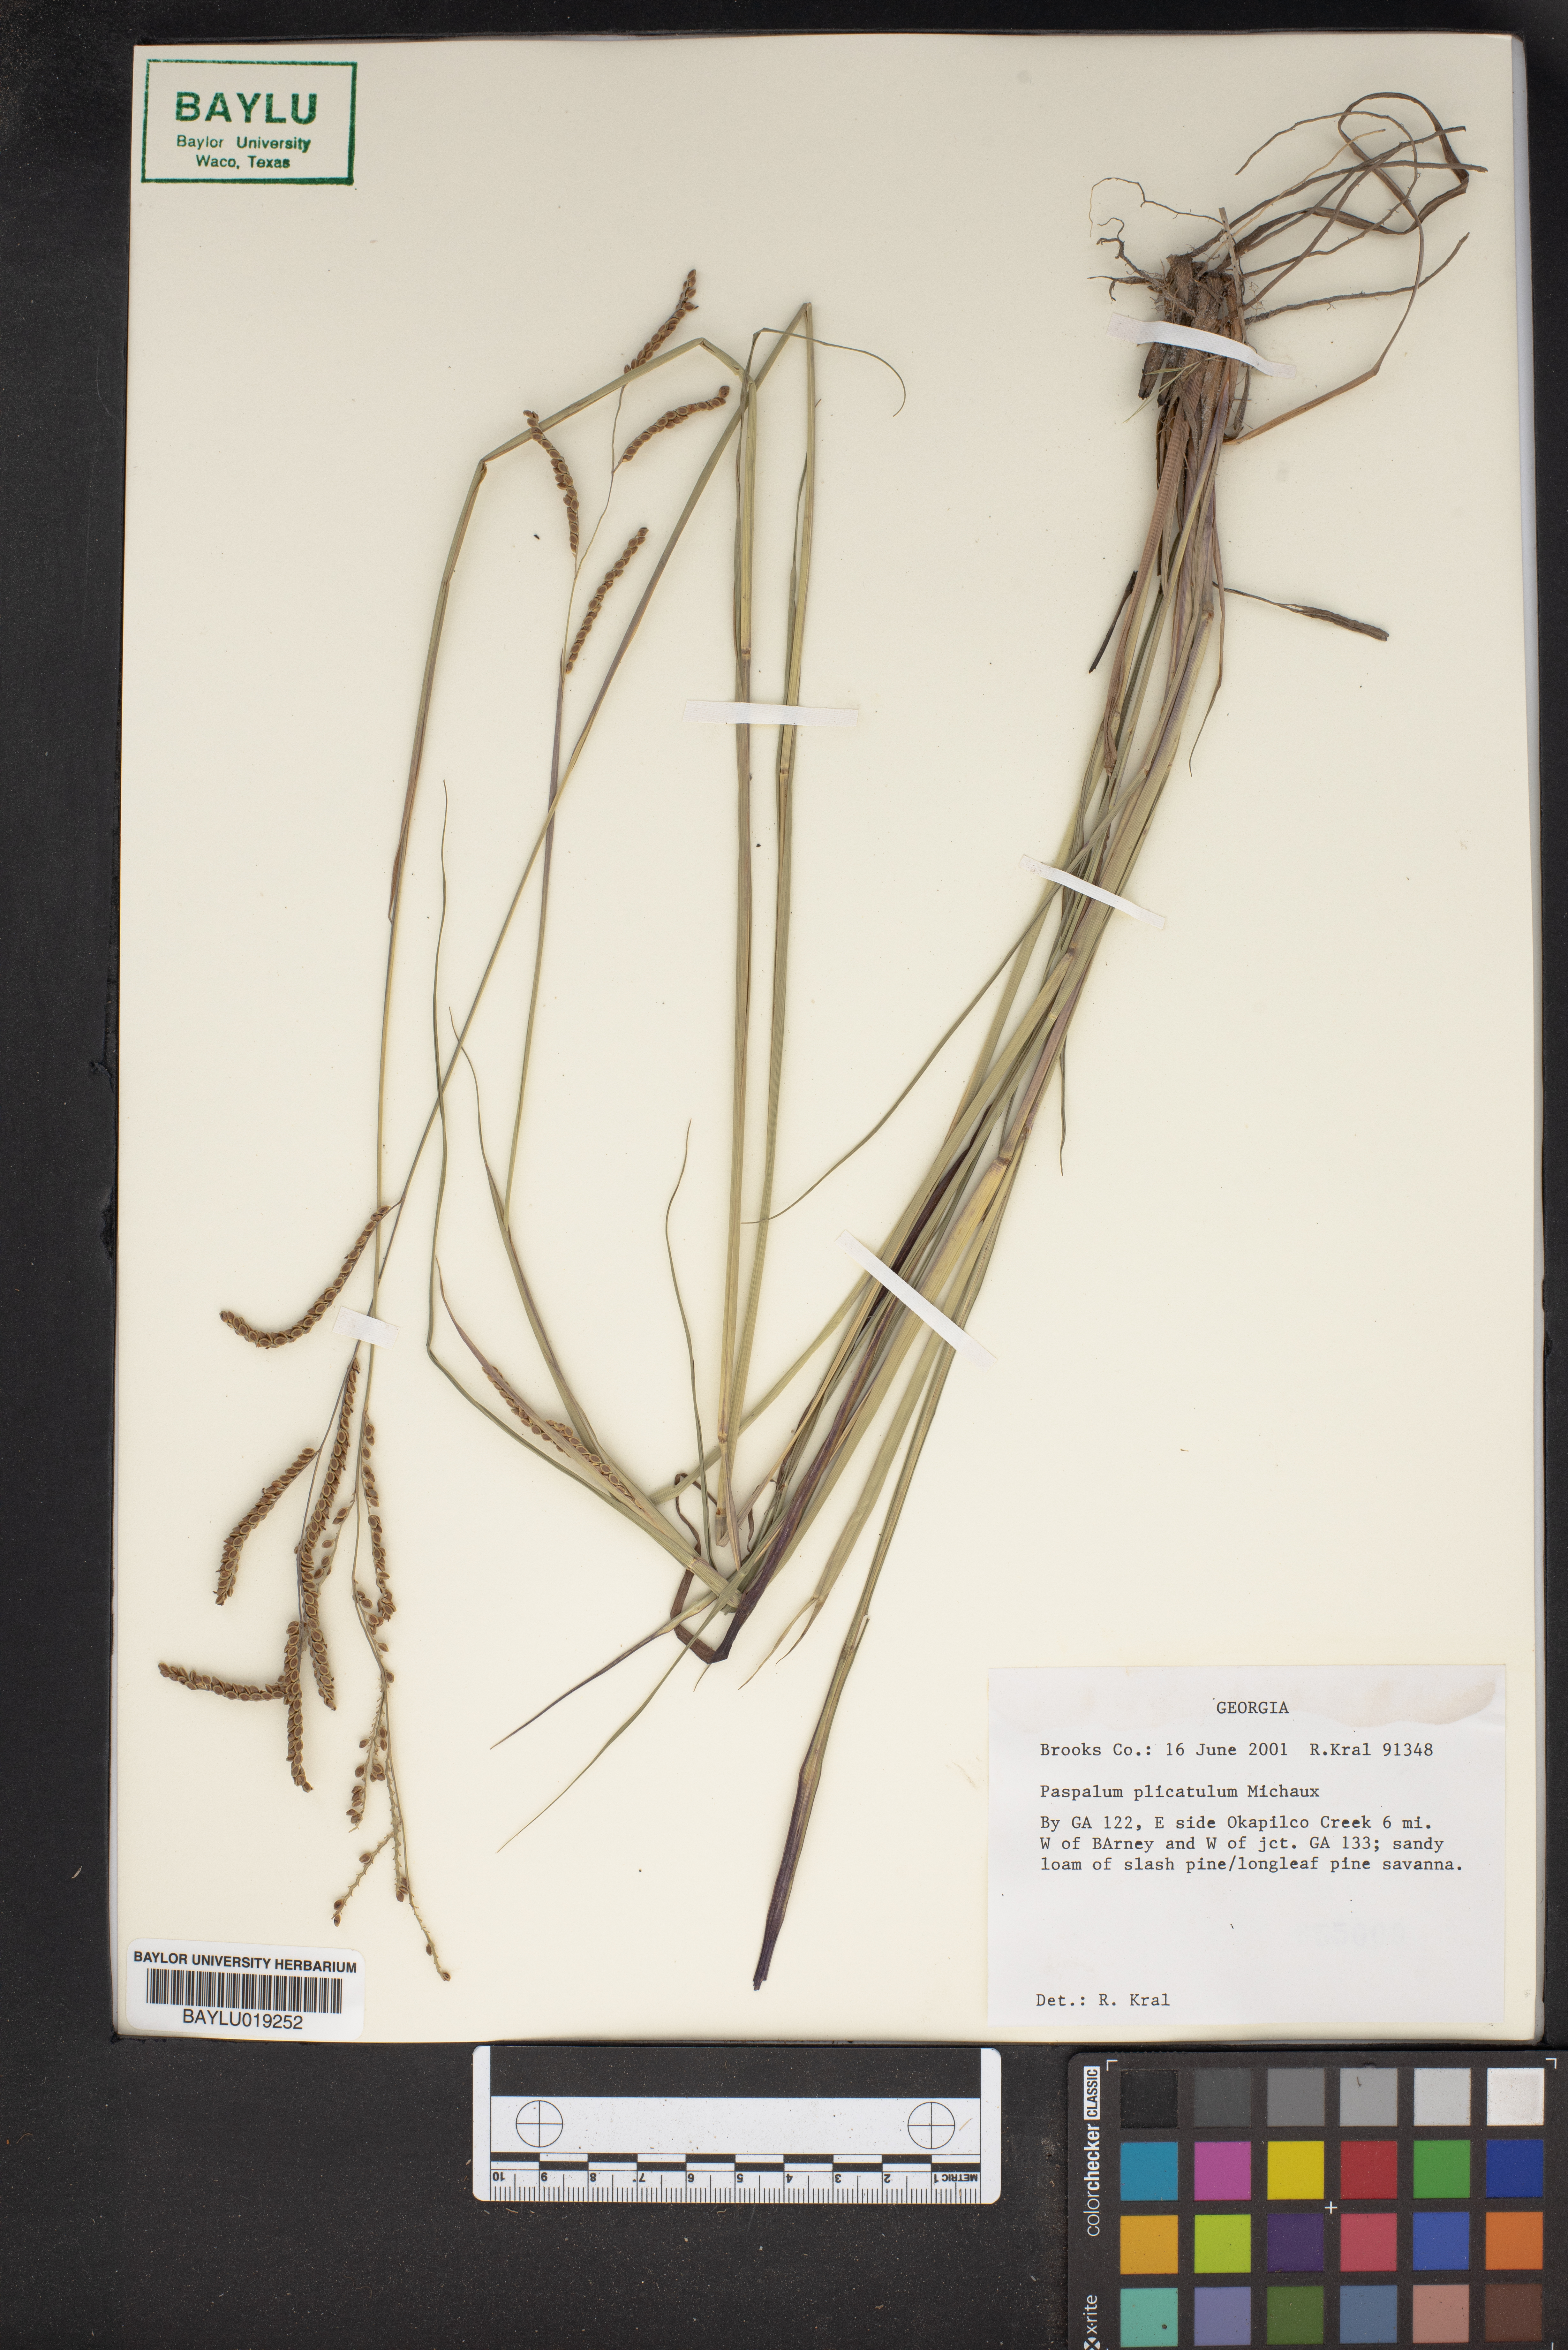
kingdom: Plantae
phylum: Tracheophyta
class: Liliopsida
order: Poales
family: Poaceae
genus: Paspalum
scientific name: Paspalum plicatulum
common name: Top paspalum
